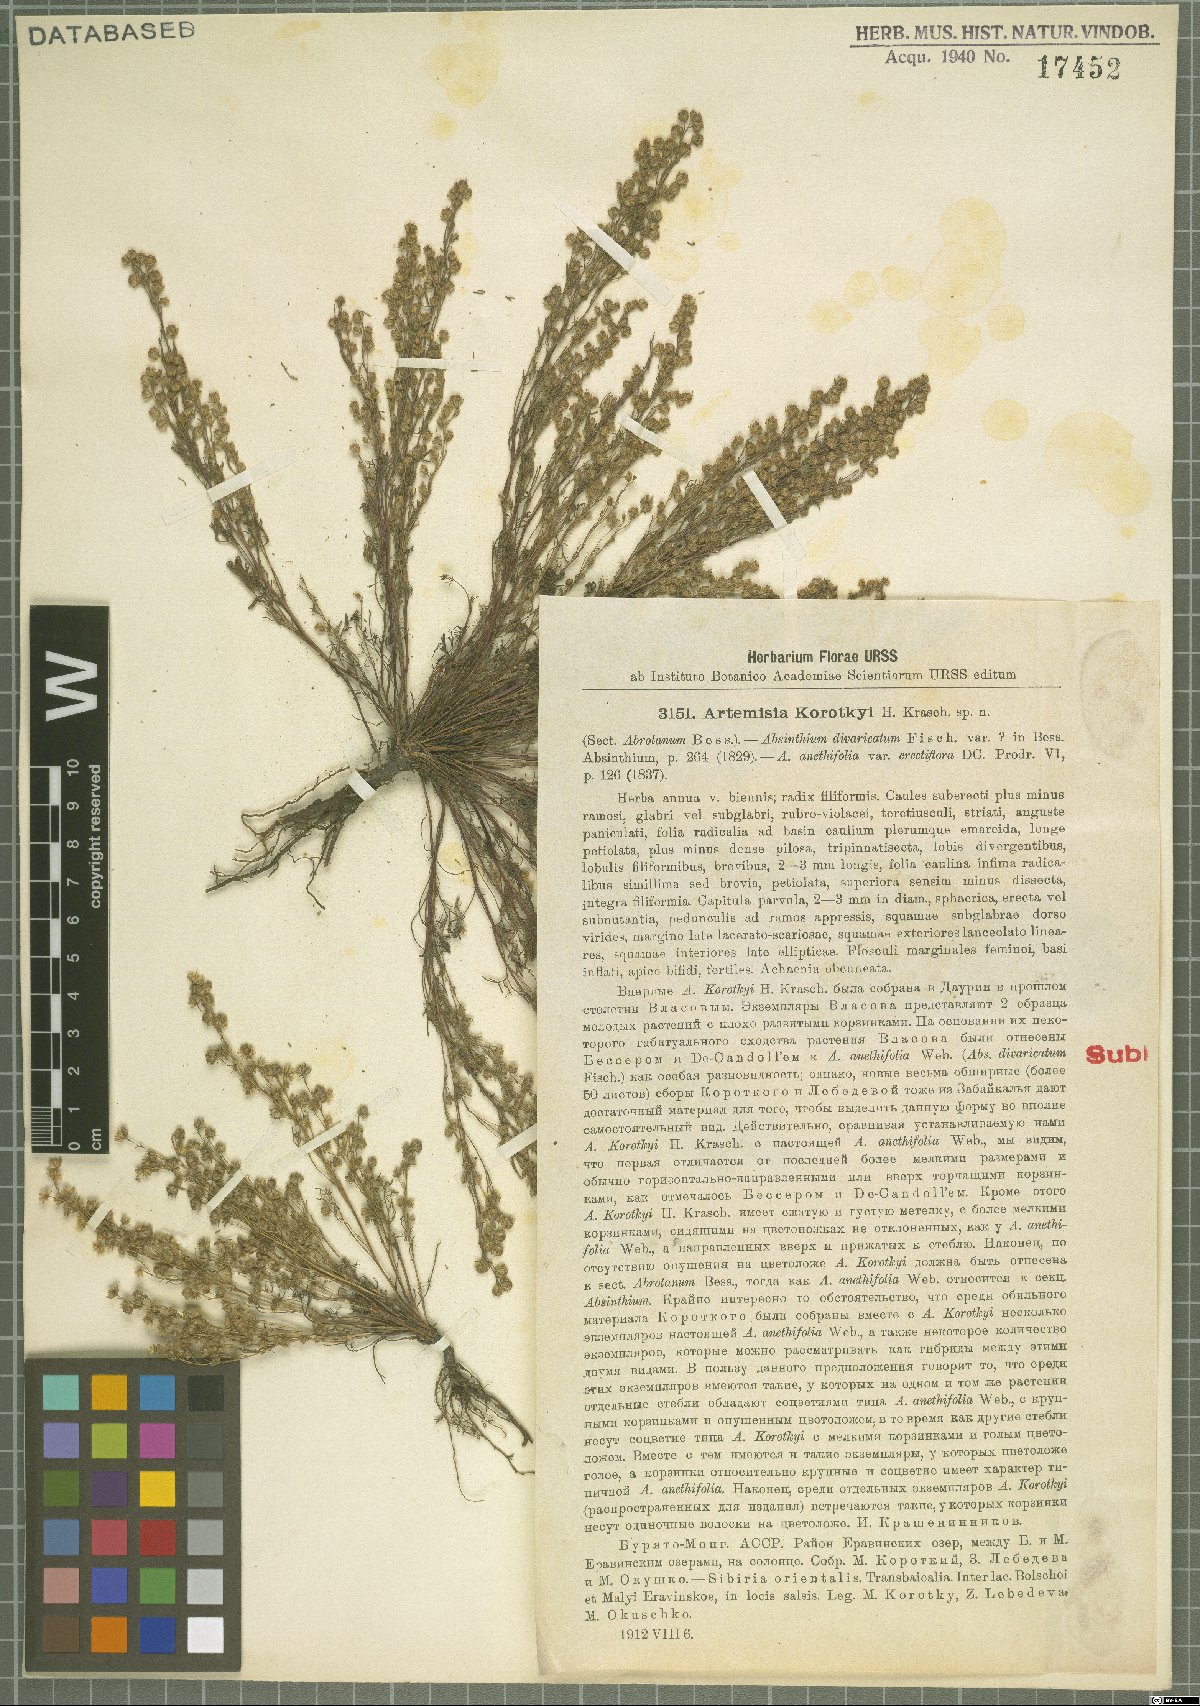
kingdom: Plantae
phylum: Tracheophyta
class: Magnoliopsida
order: Asterales
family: Asteraceae
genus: Artemisia
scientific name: Artemisia anethoides
